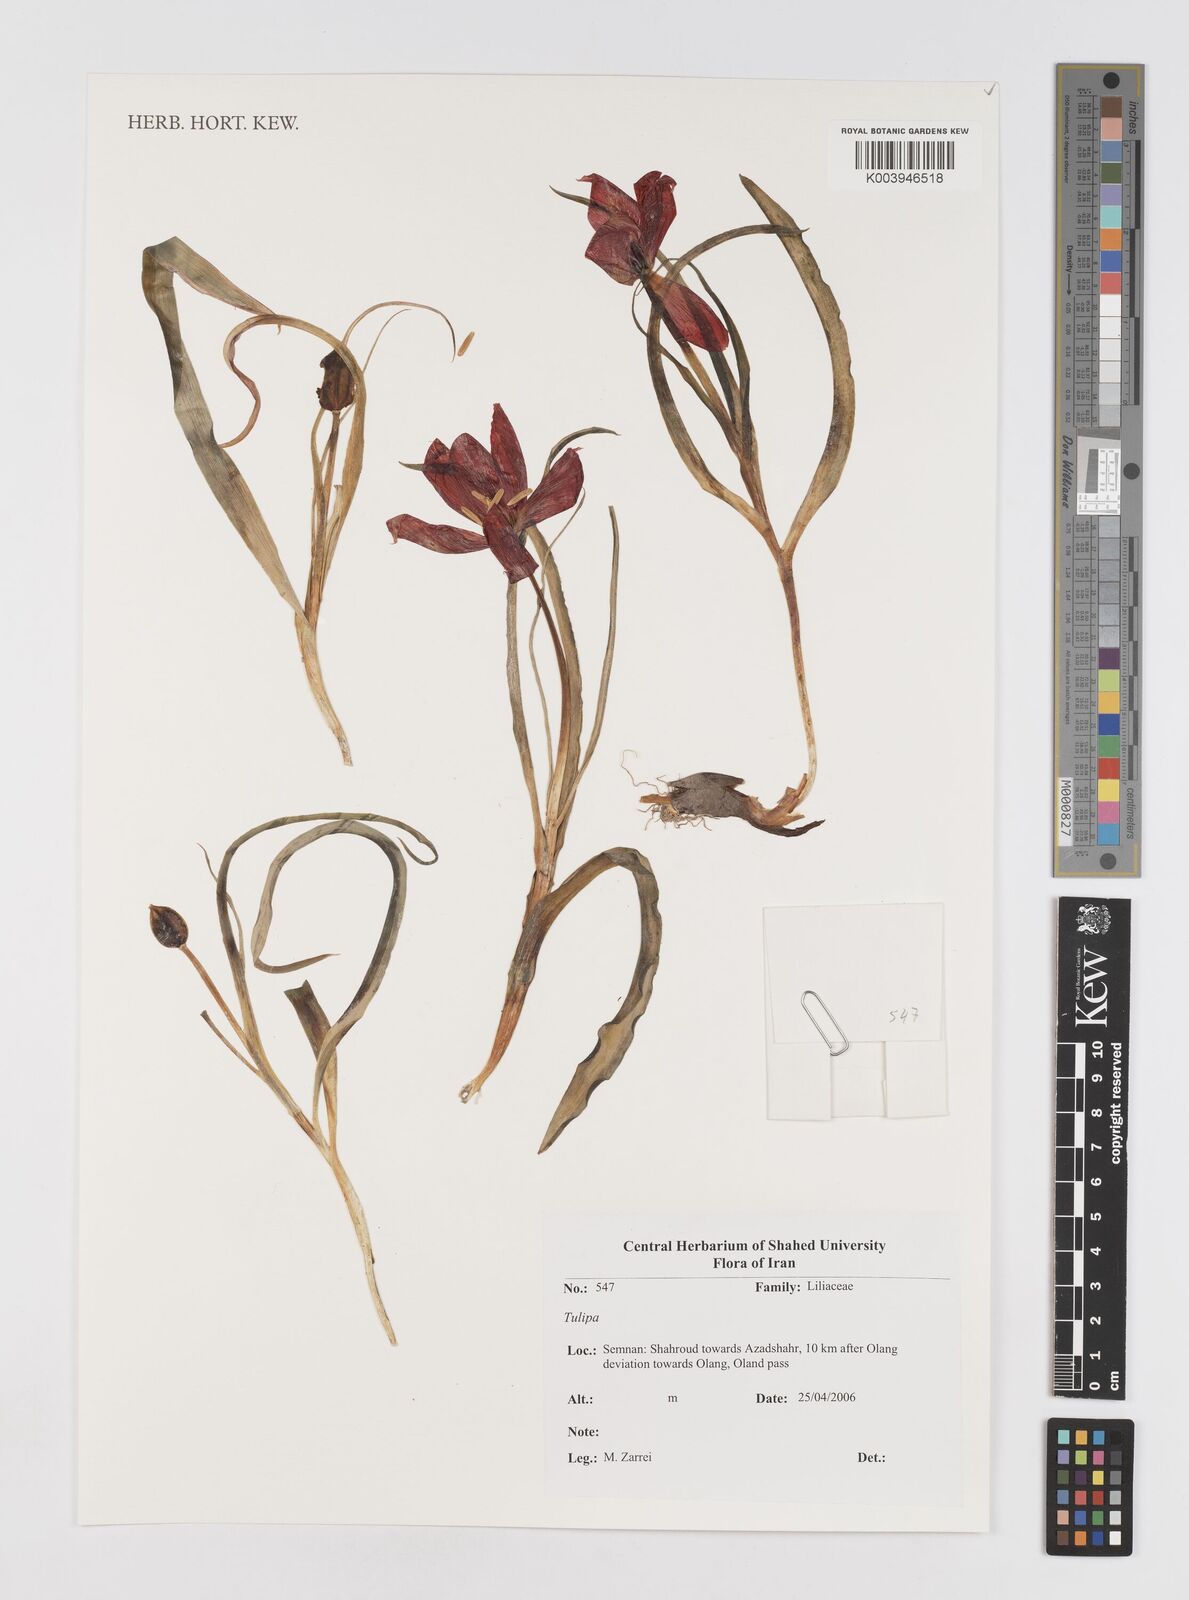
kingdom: Plantae
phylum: Tracheophyta
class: Liliopsida
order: Liliales
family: Liliaceae
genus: Tulipa
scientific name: Tulipa
